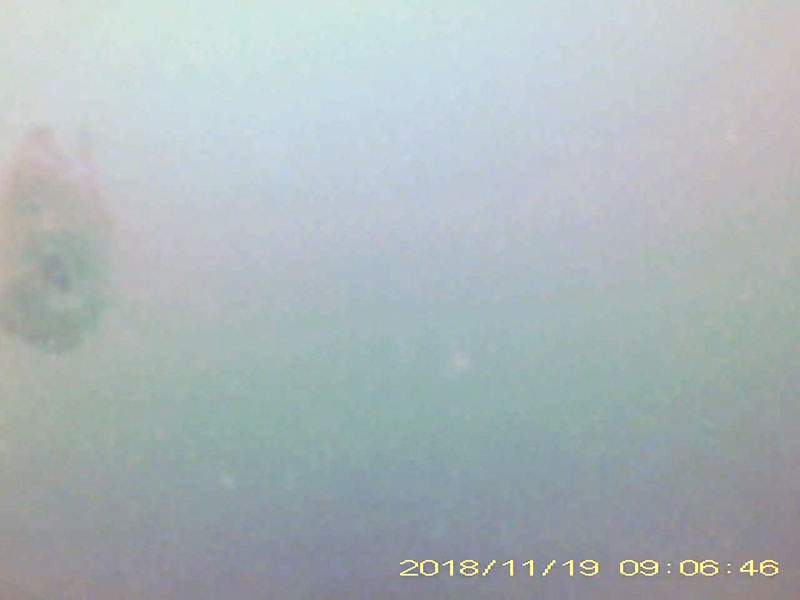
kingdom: Animalia
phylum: Chordata
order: Cypriniformes
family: Cyprinidae
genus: Carassius
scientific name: Carassius
